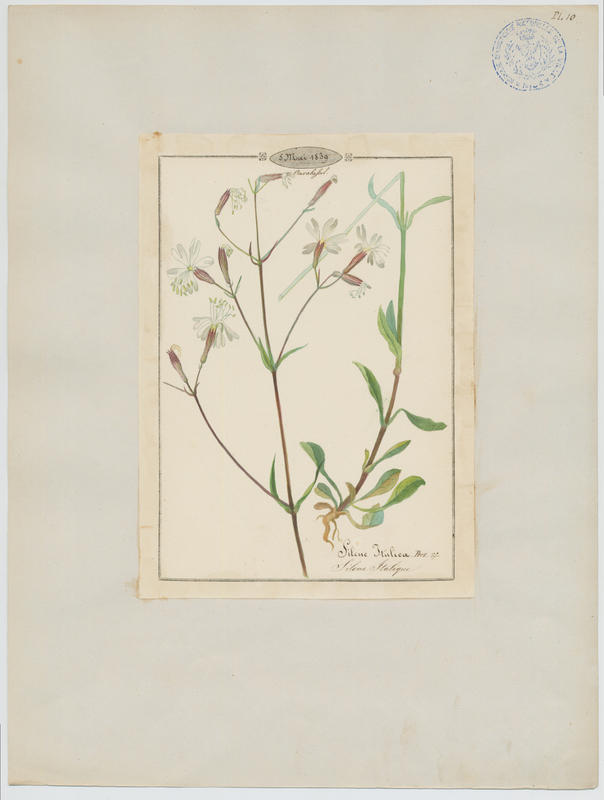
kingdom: Plantae
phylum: Tracheophyta
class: Magnoliopsida
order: Caryophyllales
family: Caryophyllaceae
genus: Silene
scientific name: Silene italica
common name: Italian catchfly
